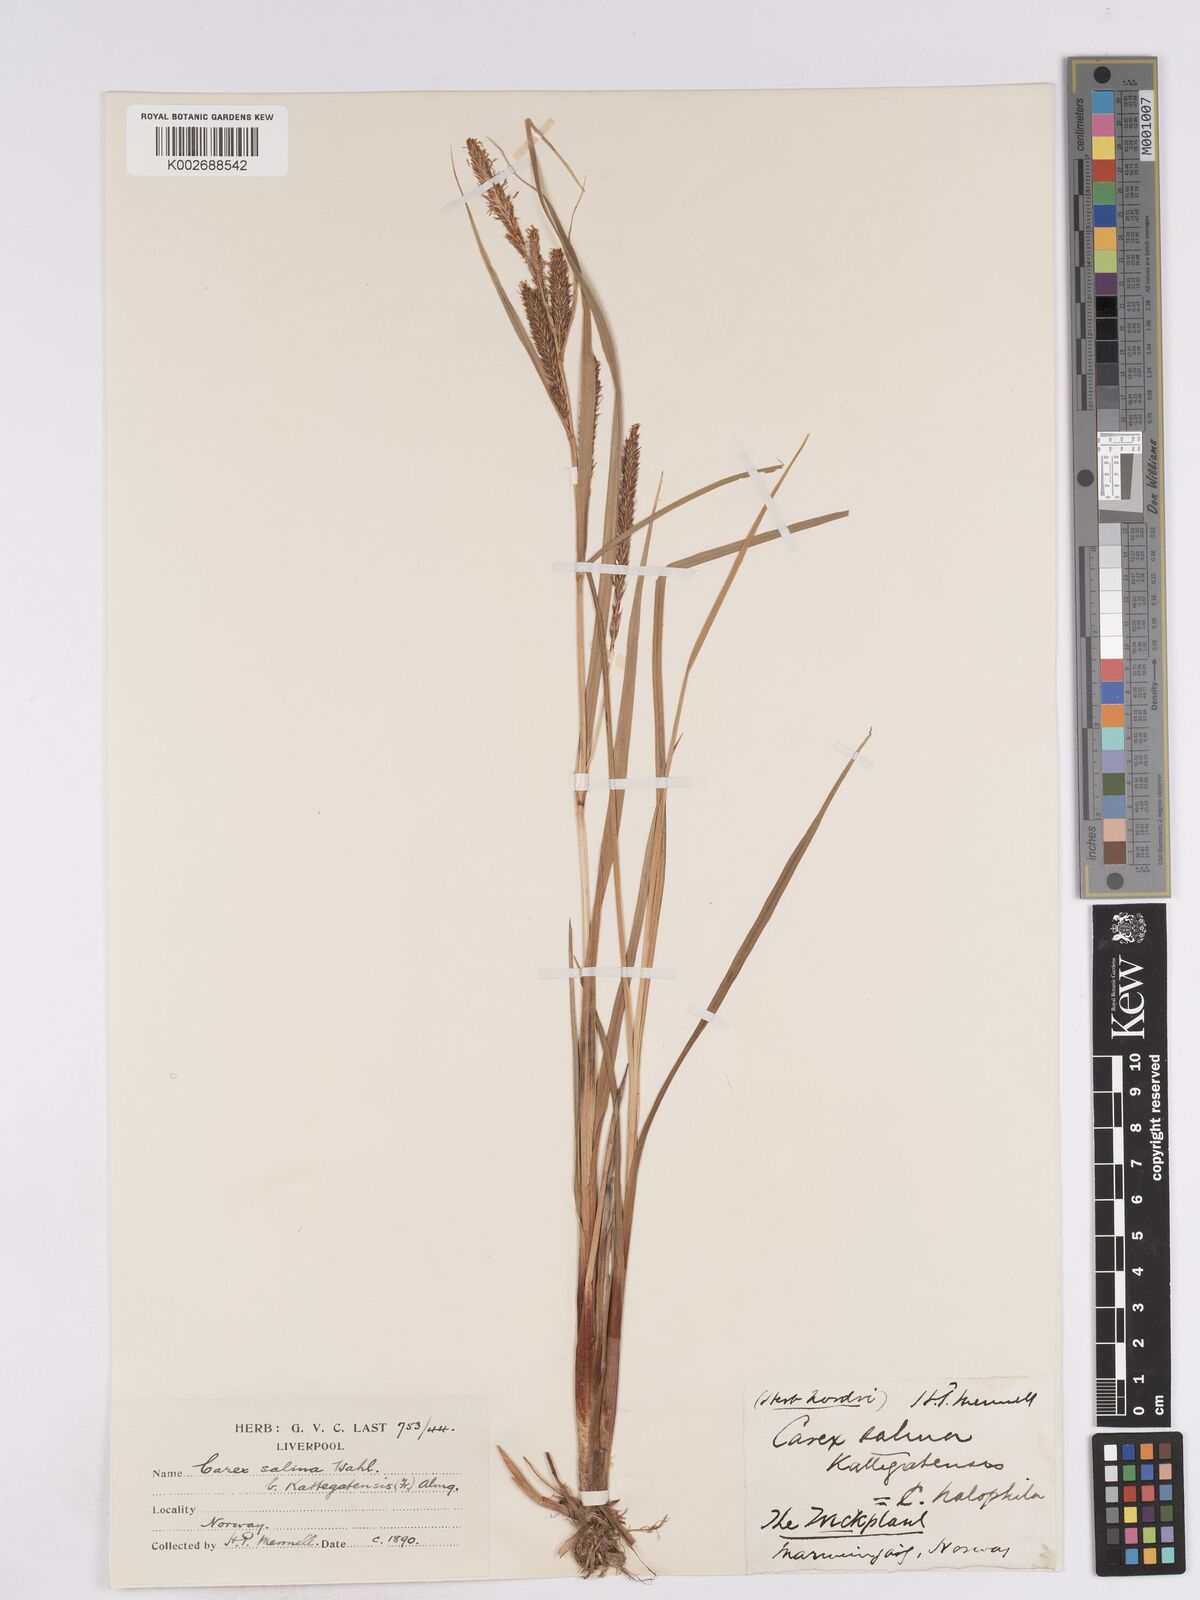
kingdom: Plantae
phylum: Tracheophyta
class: Liliopsida
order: Poales
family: Cyperaceae
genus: Carex
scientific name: Carex recta
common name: Estuarine sedge
